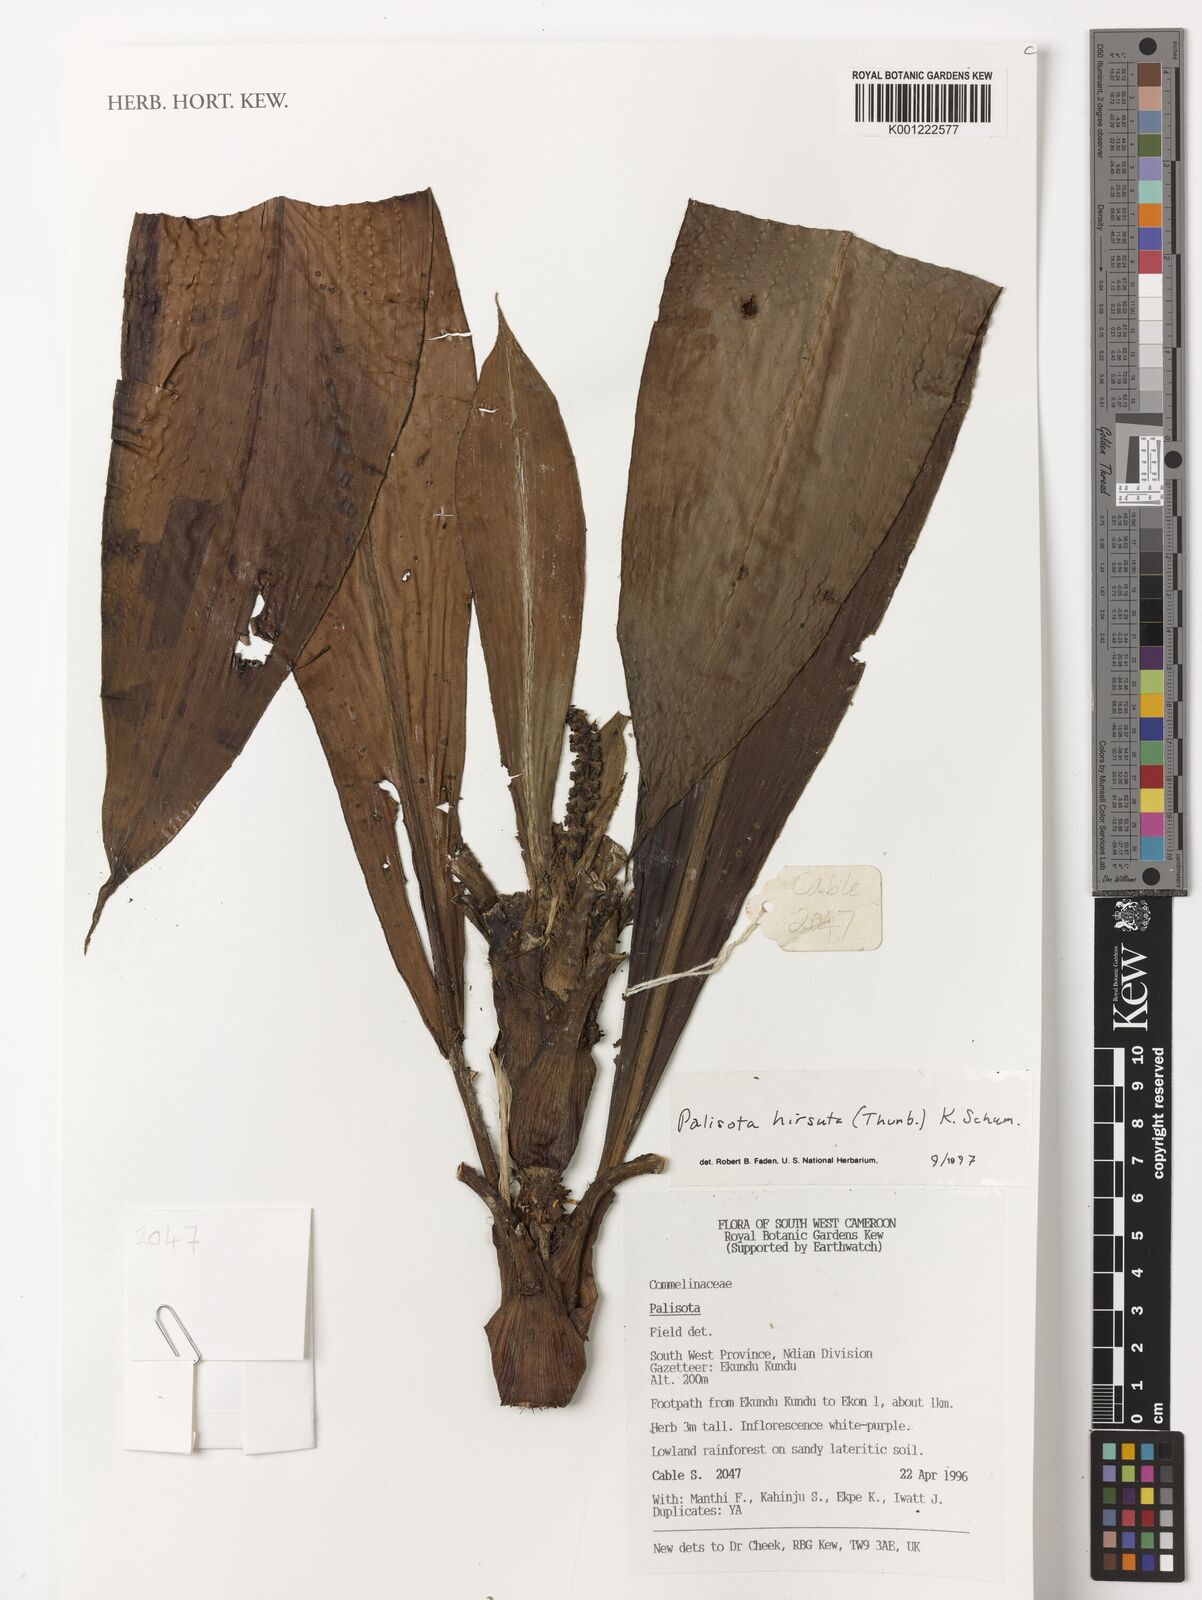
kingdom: Plantae
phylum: Tracheophyta
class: Liliopsida
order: Commelinales
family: Commelinaceae
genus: Palisota
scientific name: Palisota hirsuta
